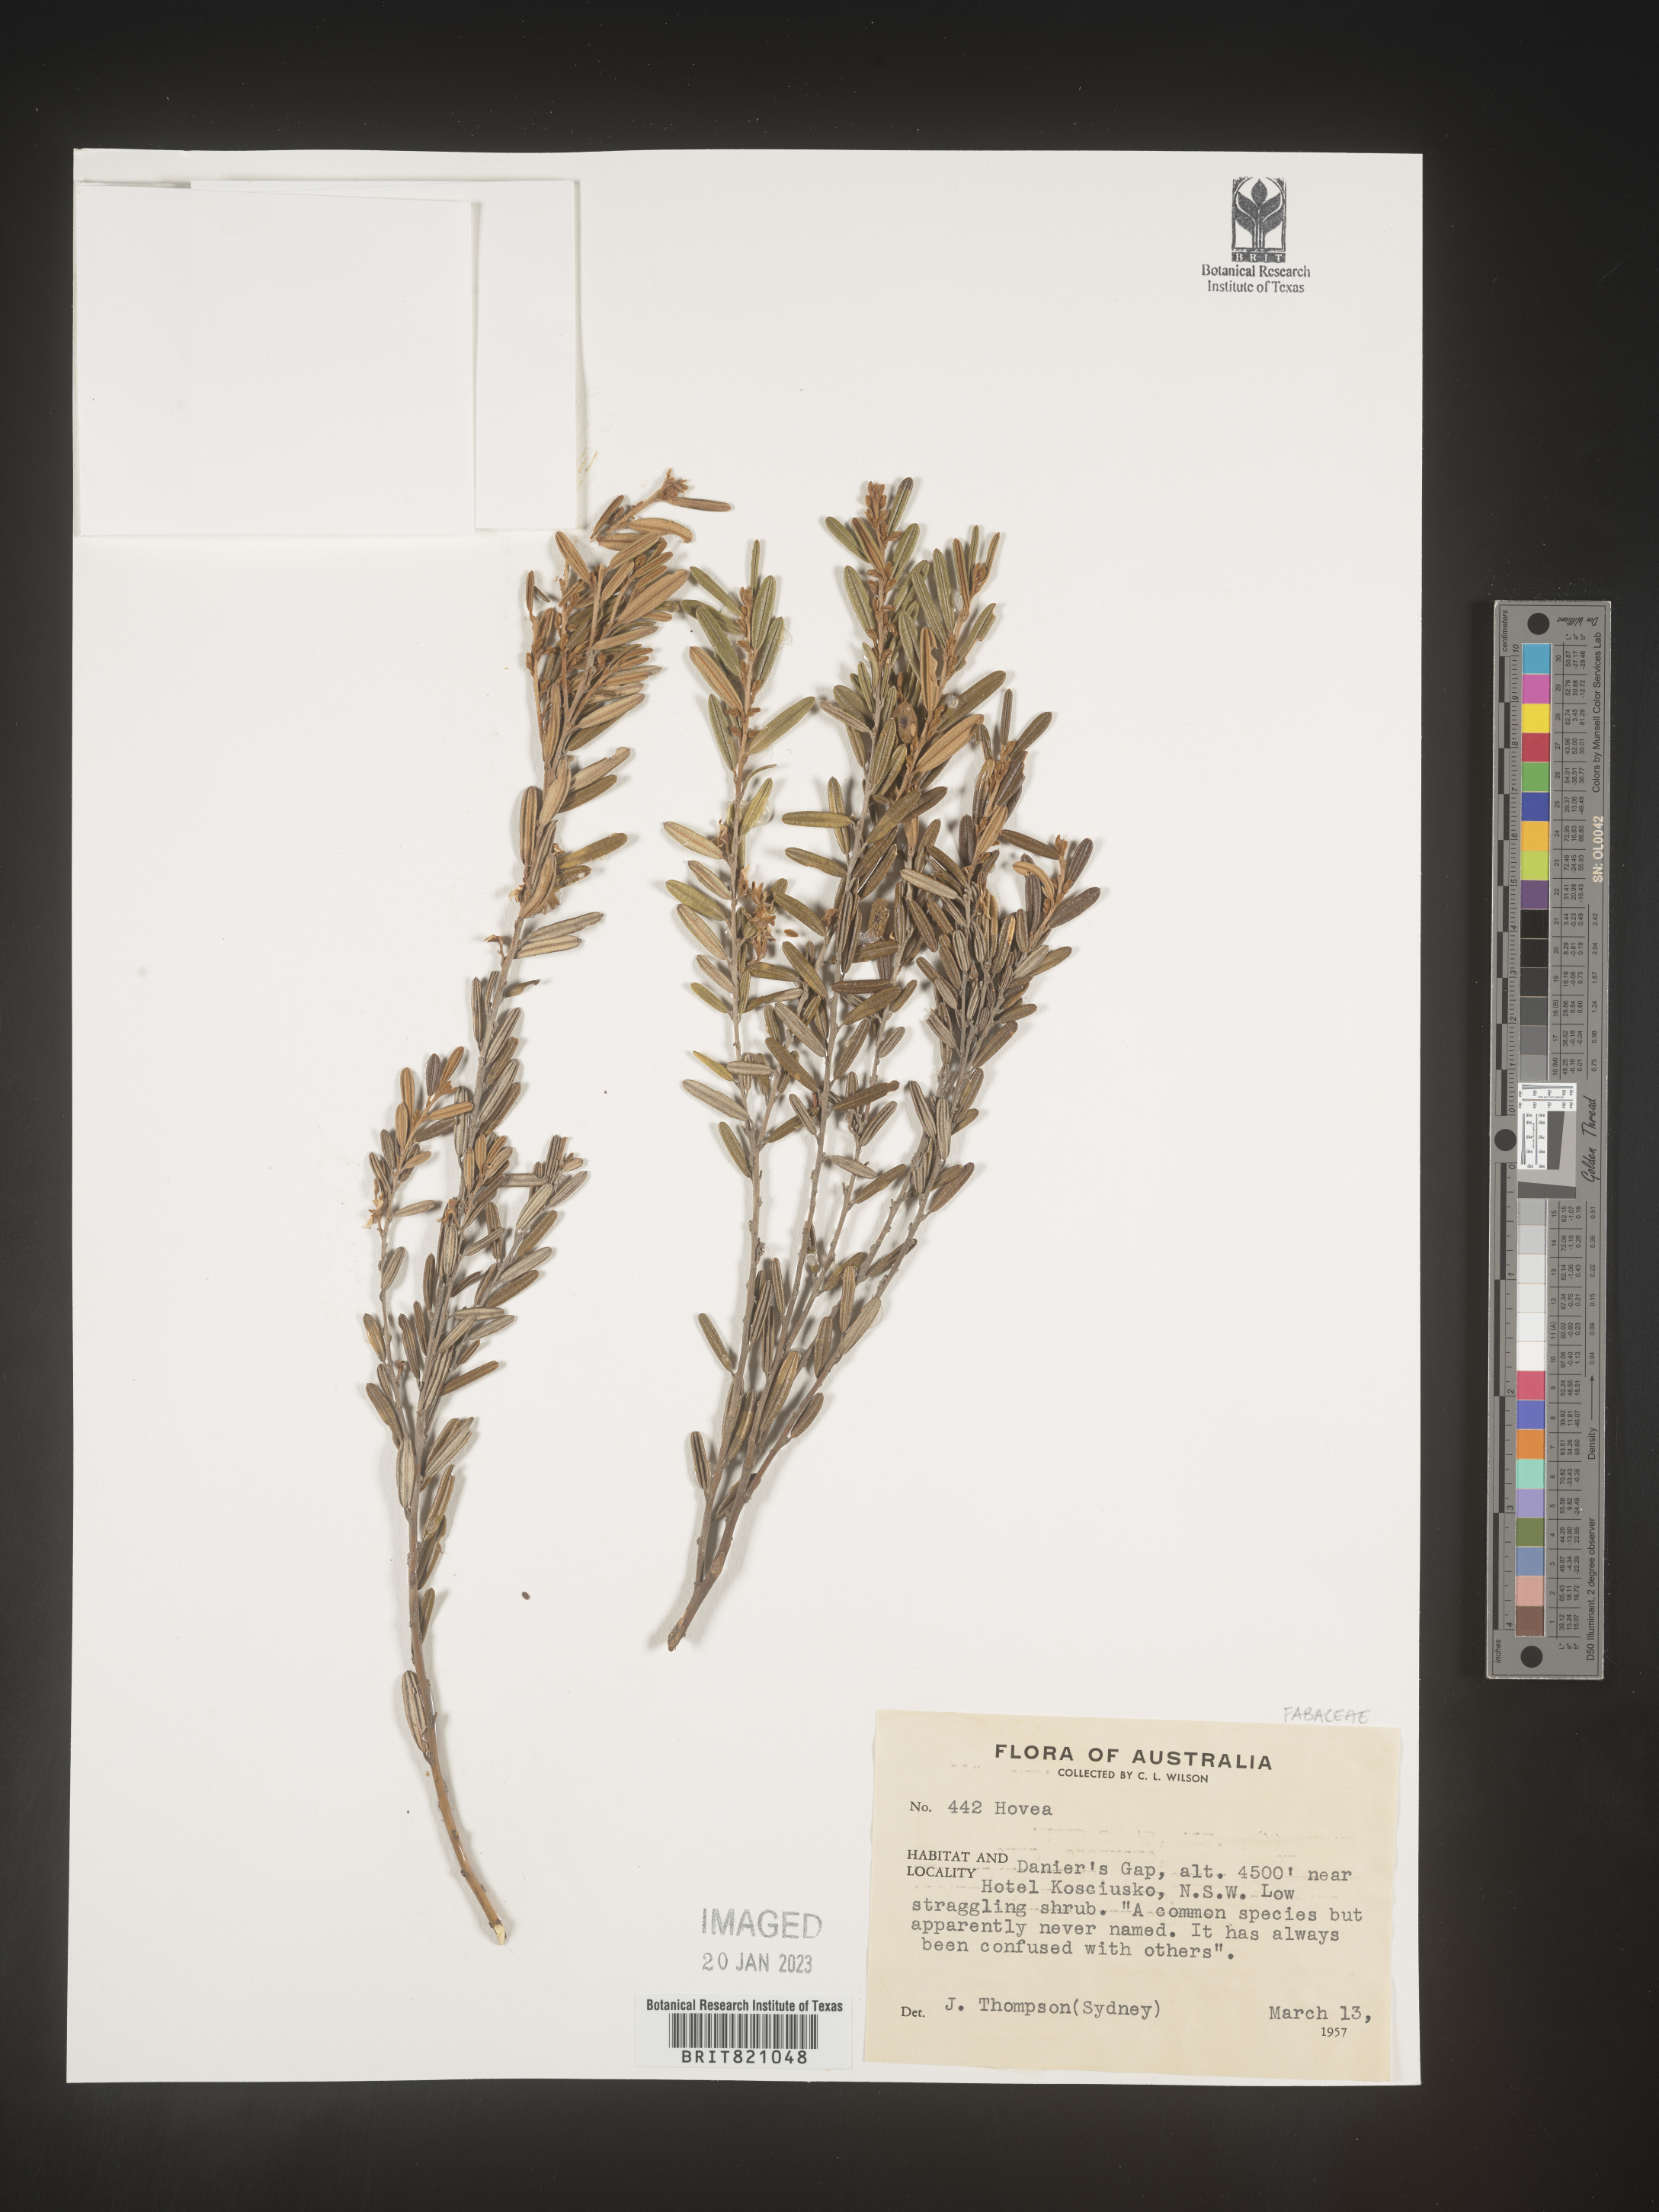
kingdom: Plantae
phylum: Tracheophyta
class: Magnoliopsida
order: Fabales
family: Fabaceae
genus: Hovea
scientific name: Hovea
